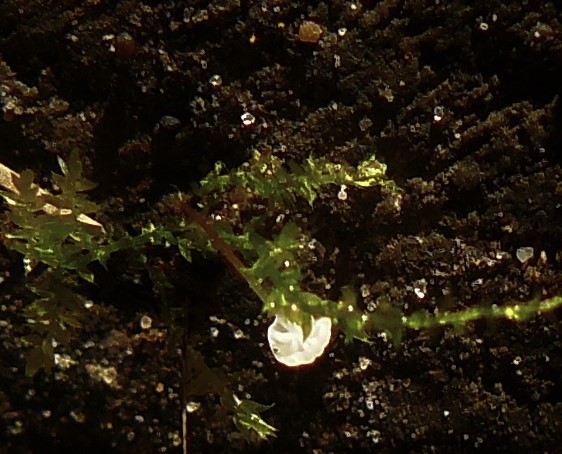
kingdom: Fungi
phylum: Basidiomycota
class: Agaricomycetes
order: Agaricales
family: Physalacriaceae
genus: Rhizomarasmius
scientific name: Rhizomarasmius setosus
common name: bøgeblads-bruskhat
